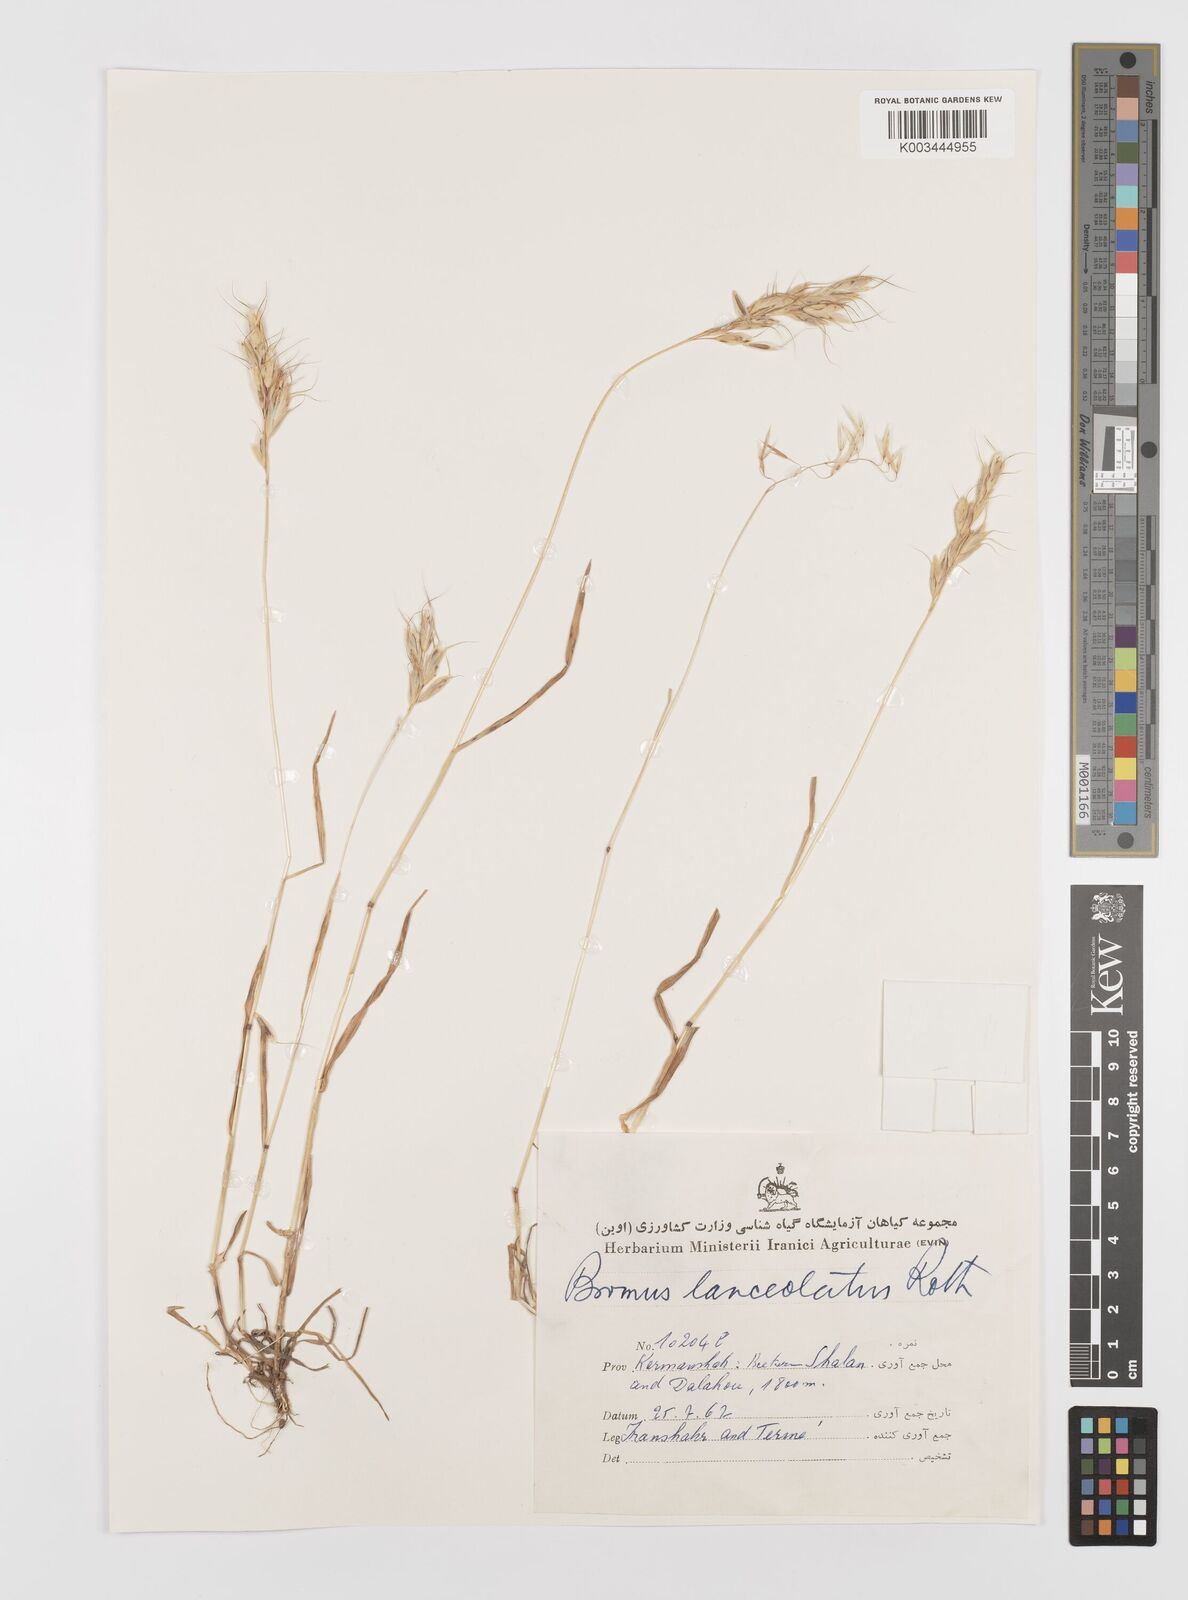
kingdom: Plantae
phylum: Tracheophyta
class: Liliopsida
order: Poales
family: Poaceae
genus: Bromus
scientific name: Bromus lanceolatus
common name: Mediterranean brome
